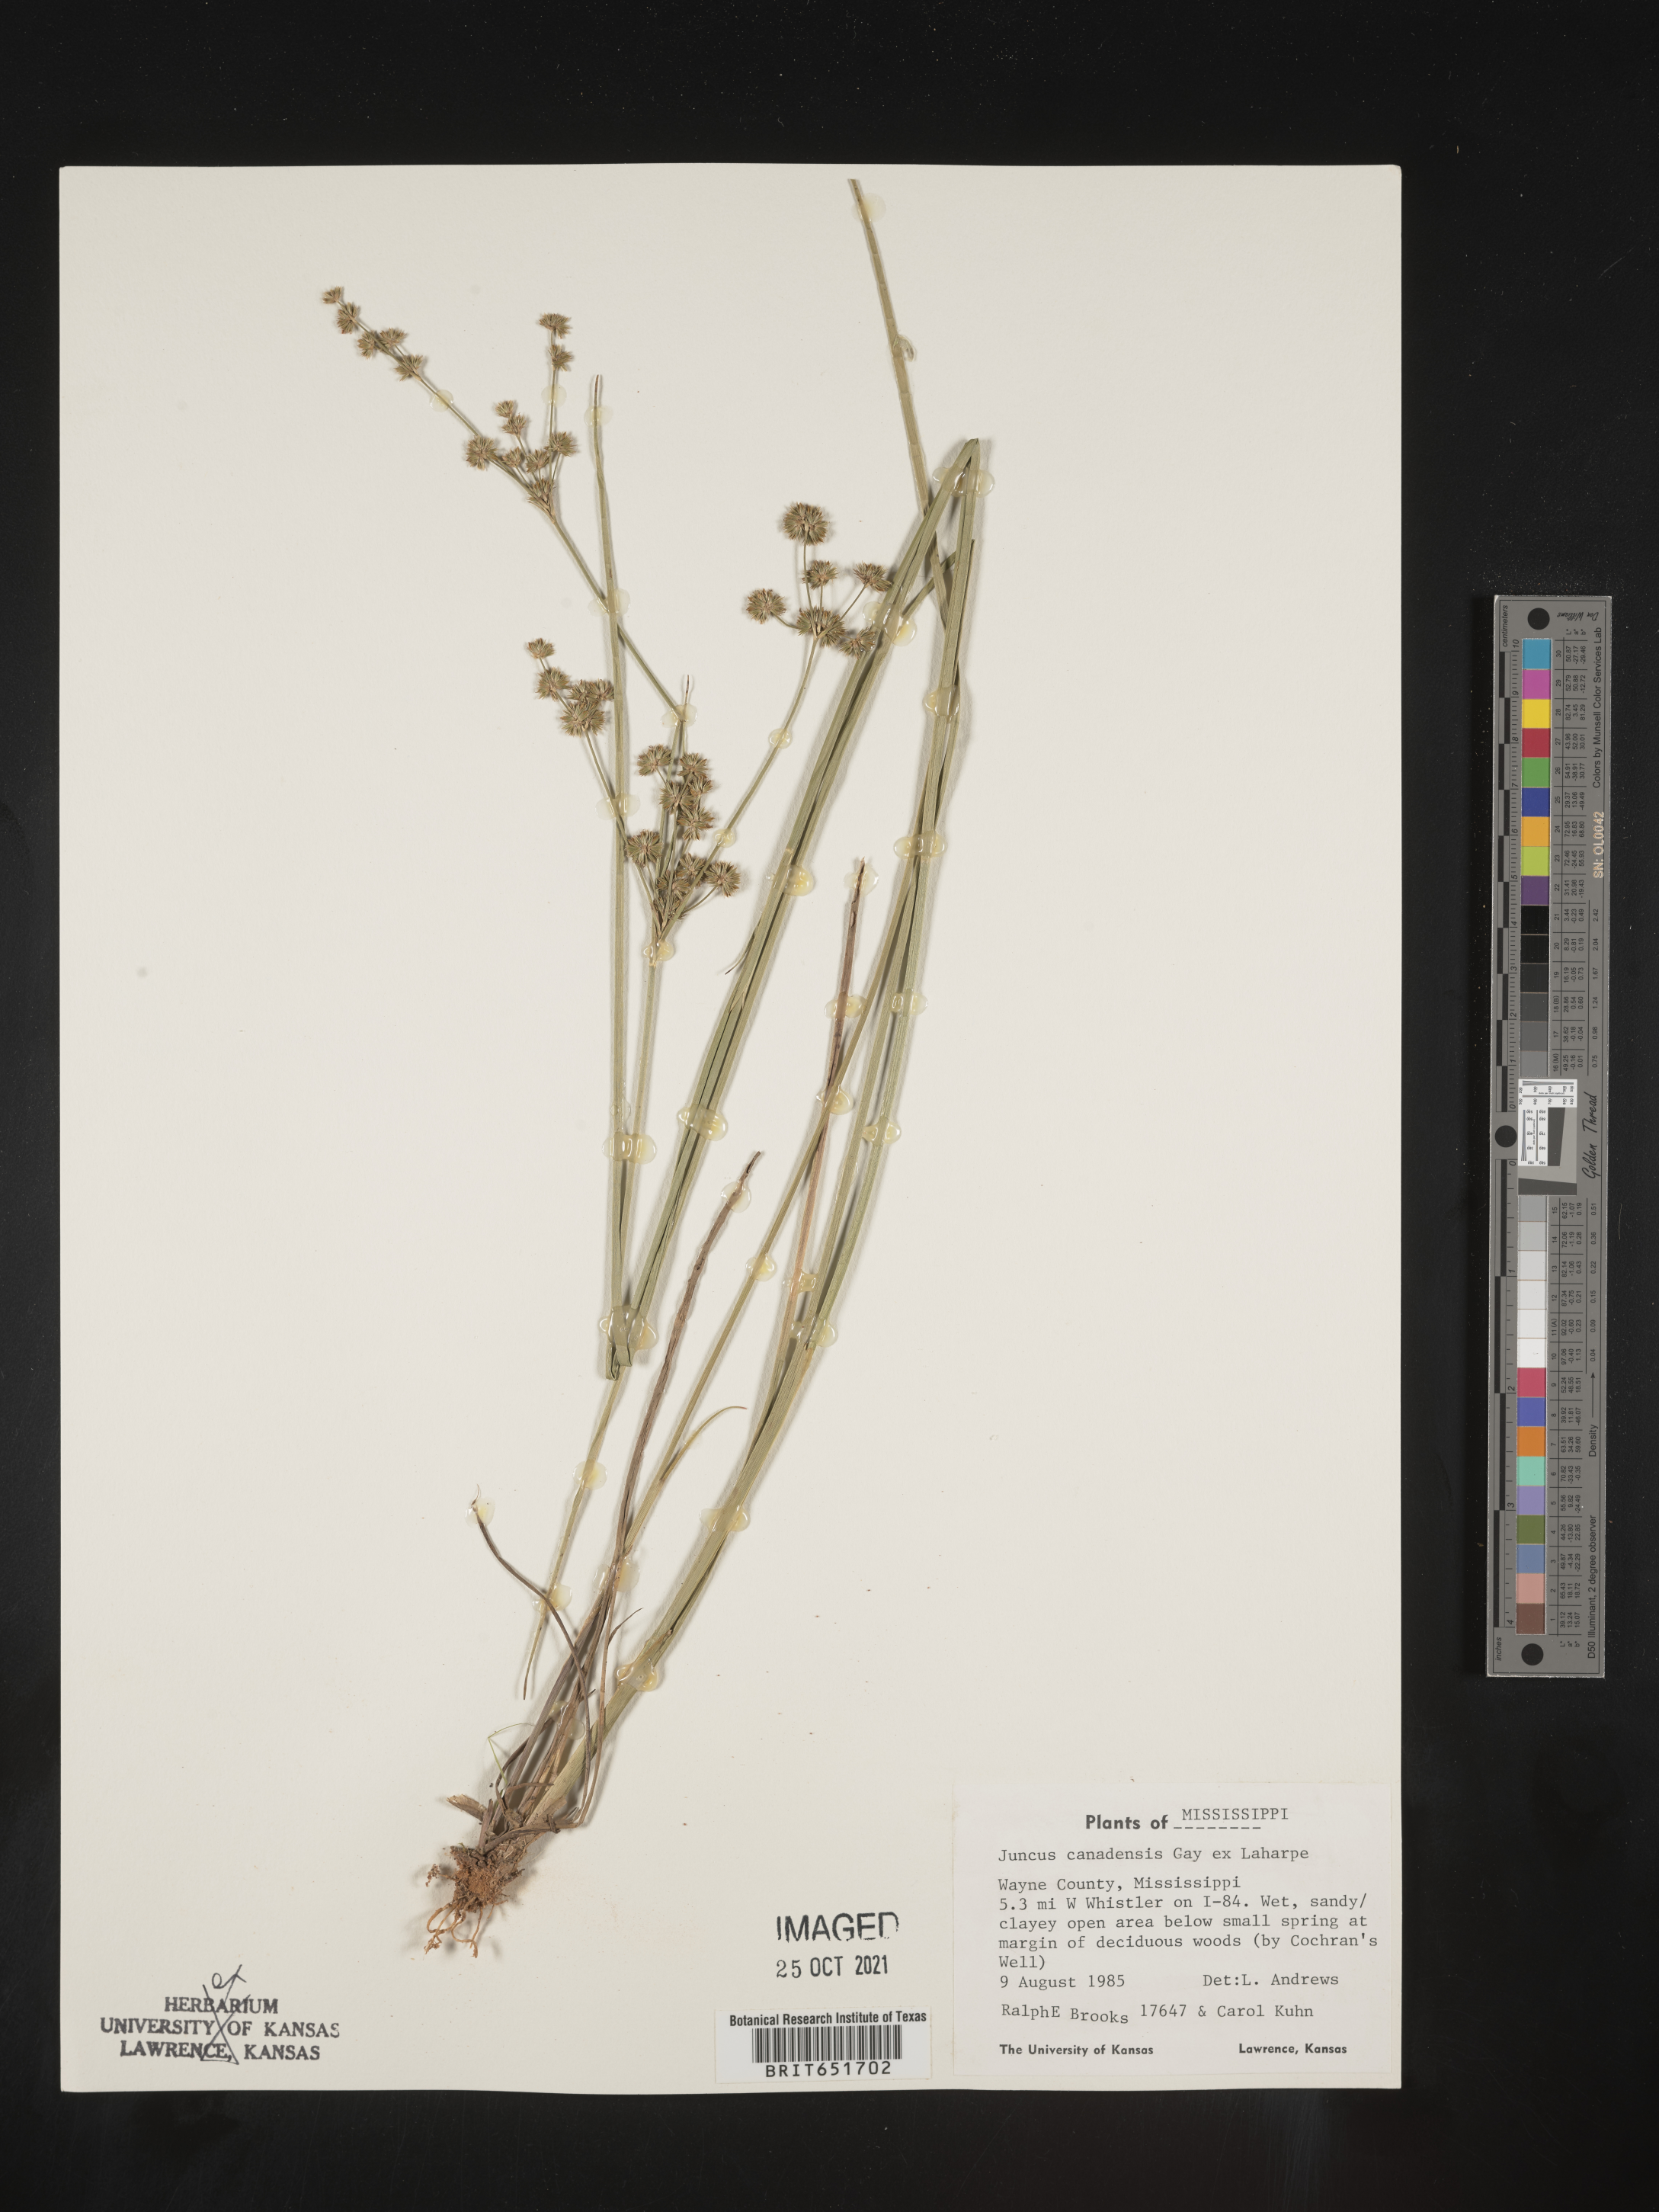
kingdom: Plantae
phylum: Tracheophyta
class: Liliopsida
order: Poales
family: Juncaceae
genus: Juncus
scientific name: Juncus canadensis
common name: Canada rush
